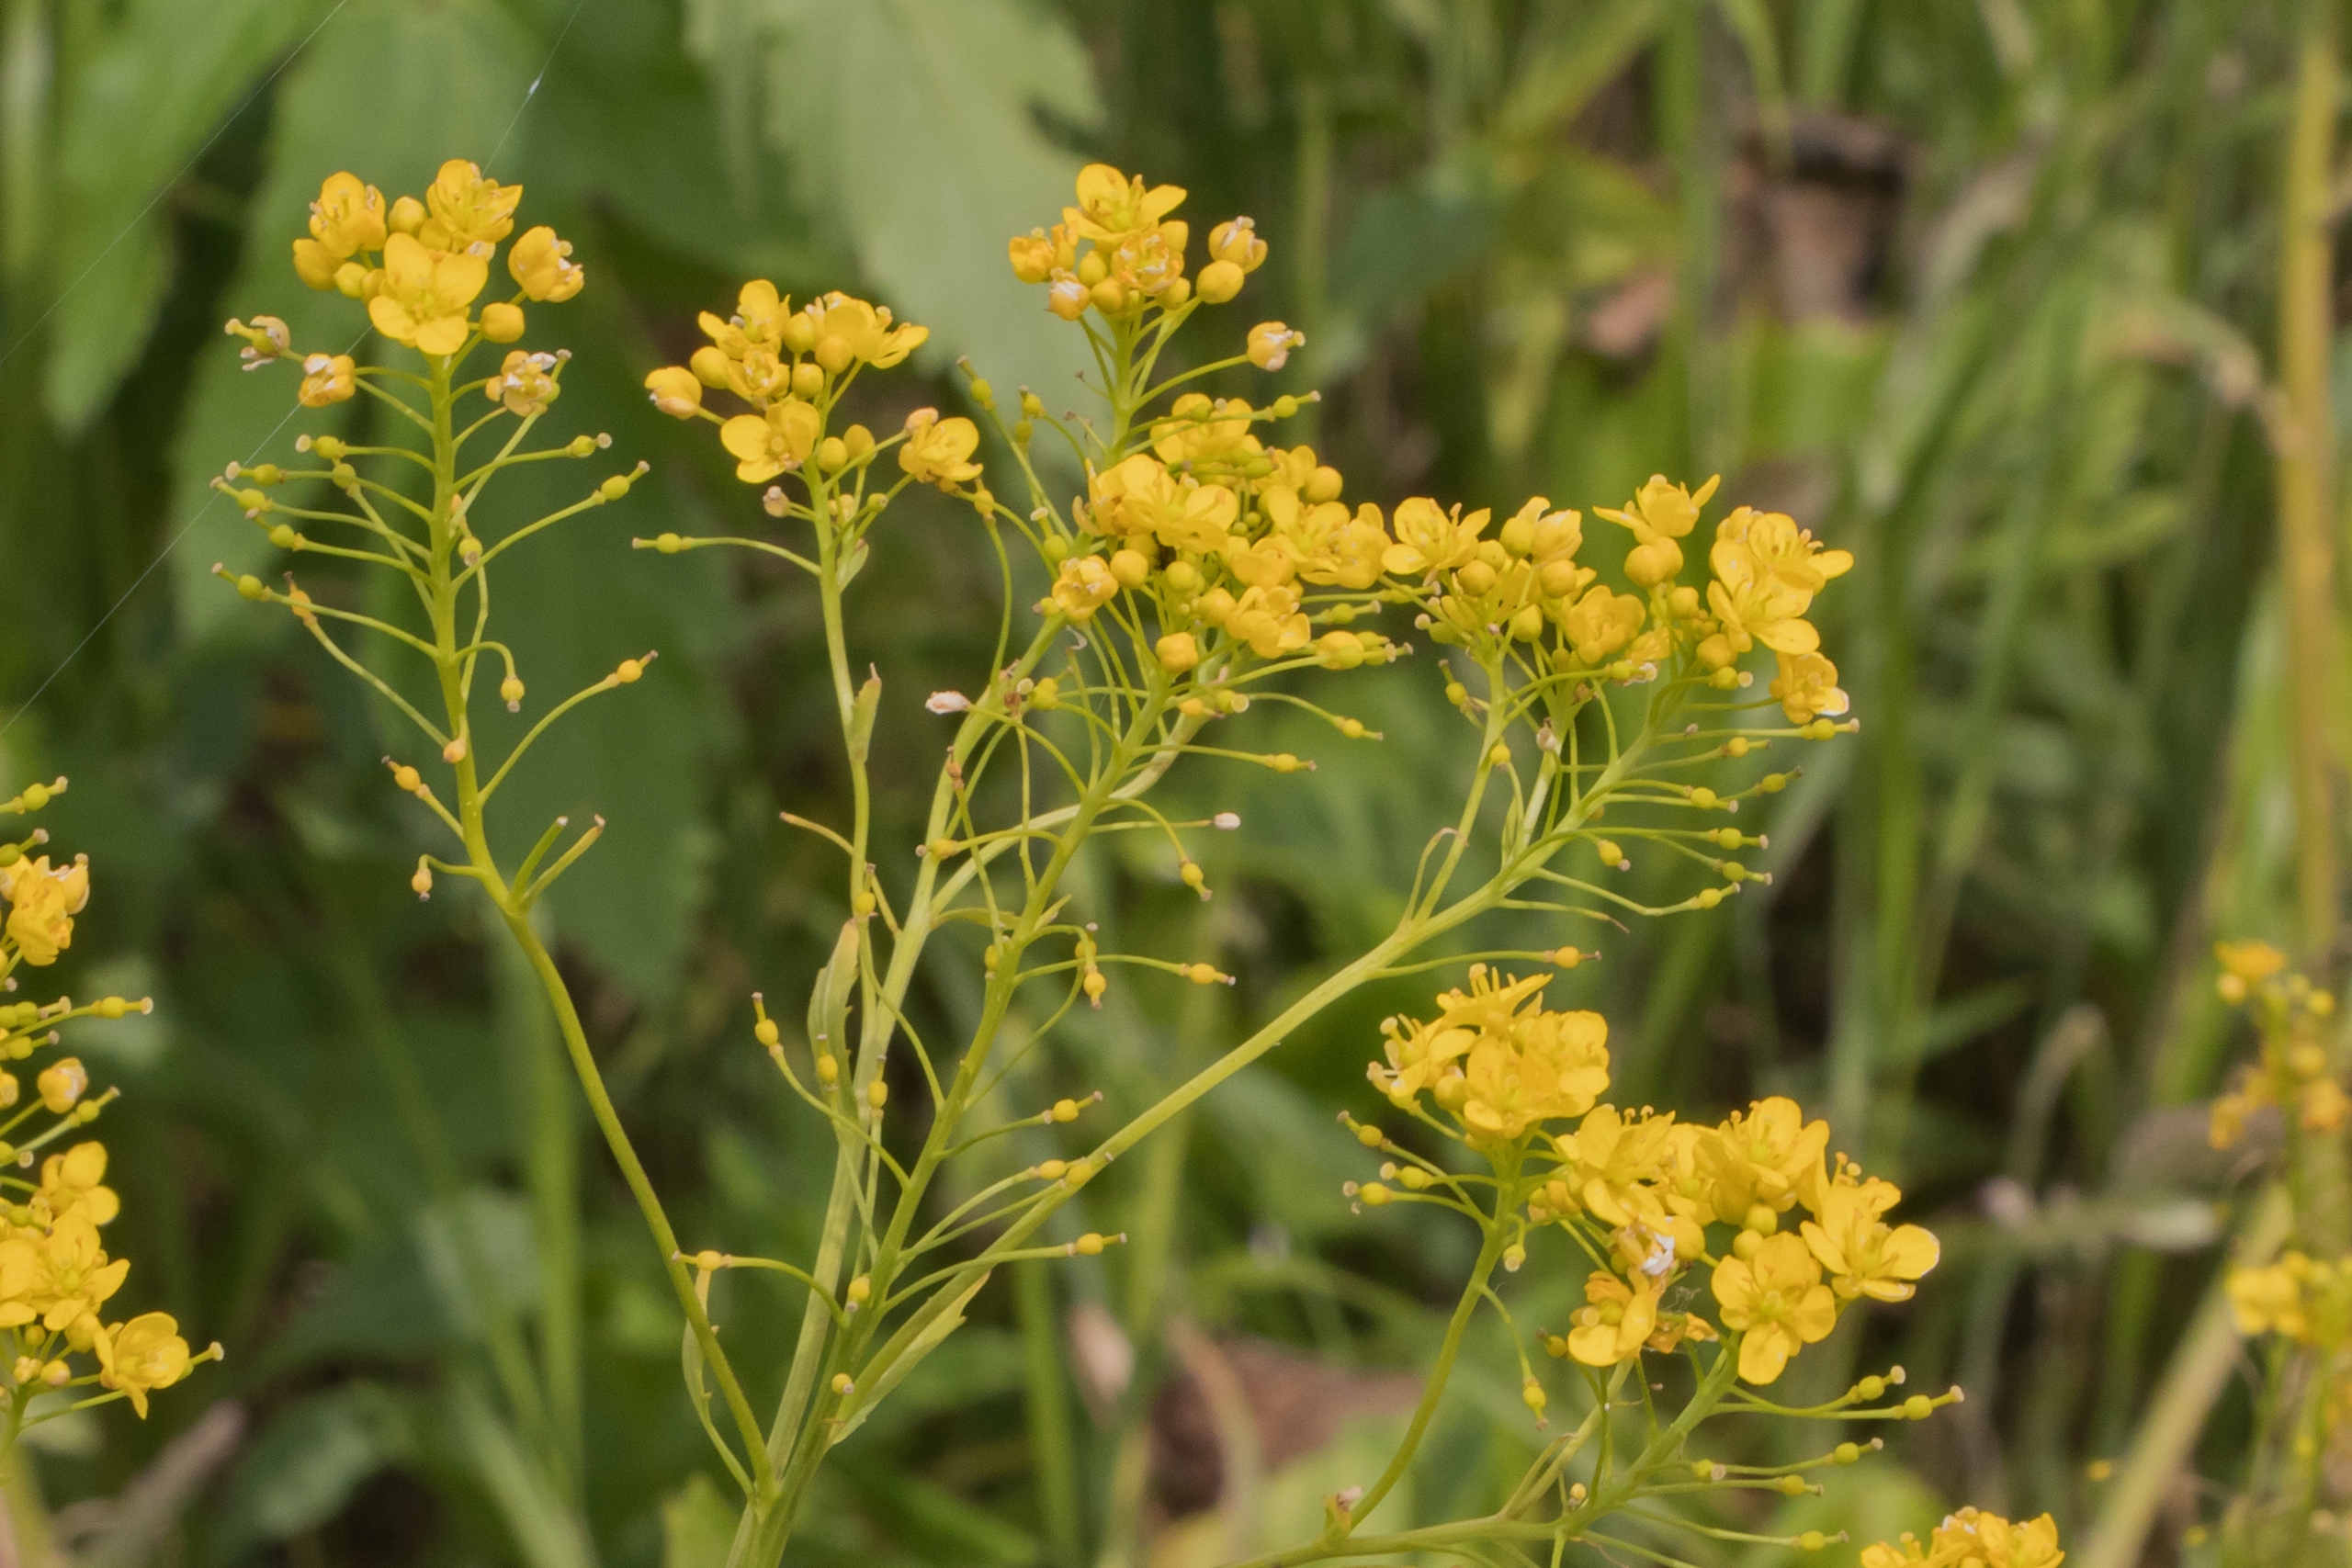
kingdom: Plantae
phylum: Tracheophyta
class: Magnoliopsida
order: Brassicales
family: Brassicaceae
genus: Rorippa
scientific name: Rorippa austriaca
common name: Østrigsk guldkarse
